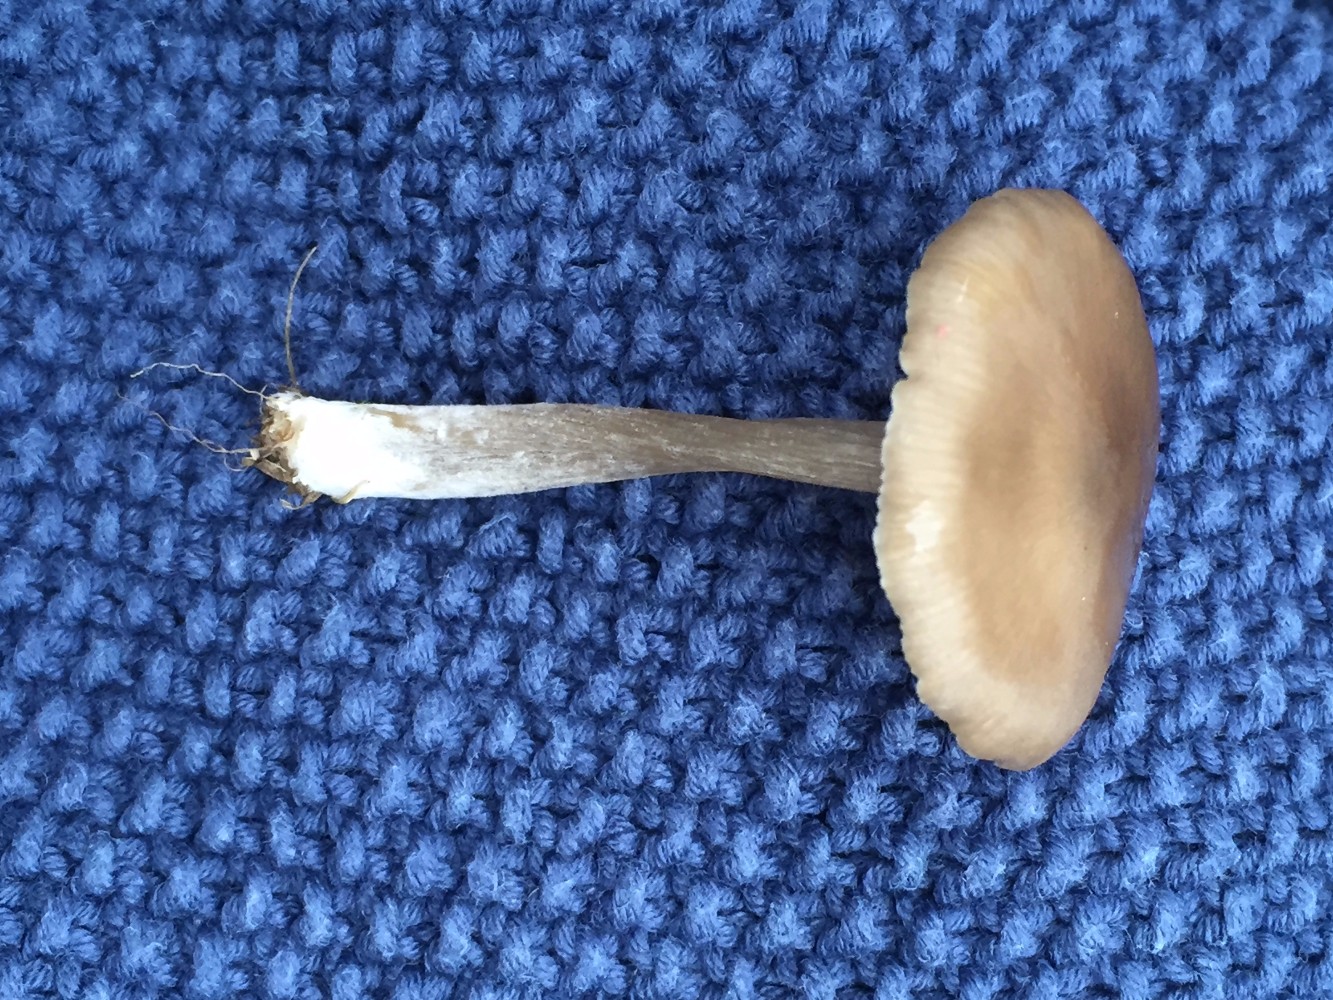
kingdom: Fungi
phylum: Basidiomycota
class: Agaricomycetes
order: Agaricales
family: Entolomataceae
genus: Entoloma
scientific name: Entoloma sericeum
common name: silkeglinsende rødblad
